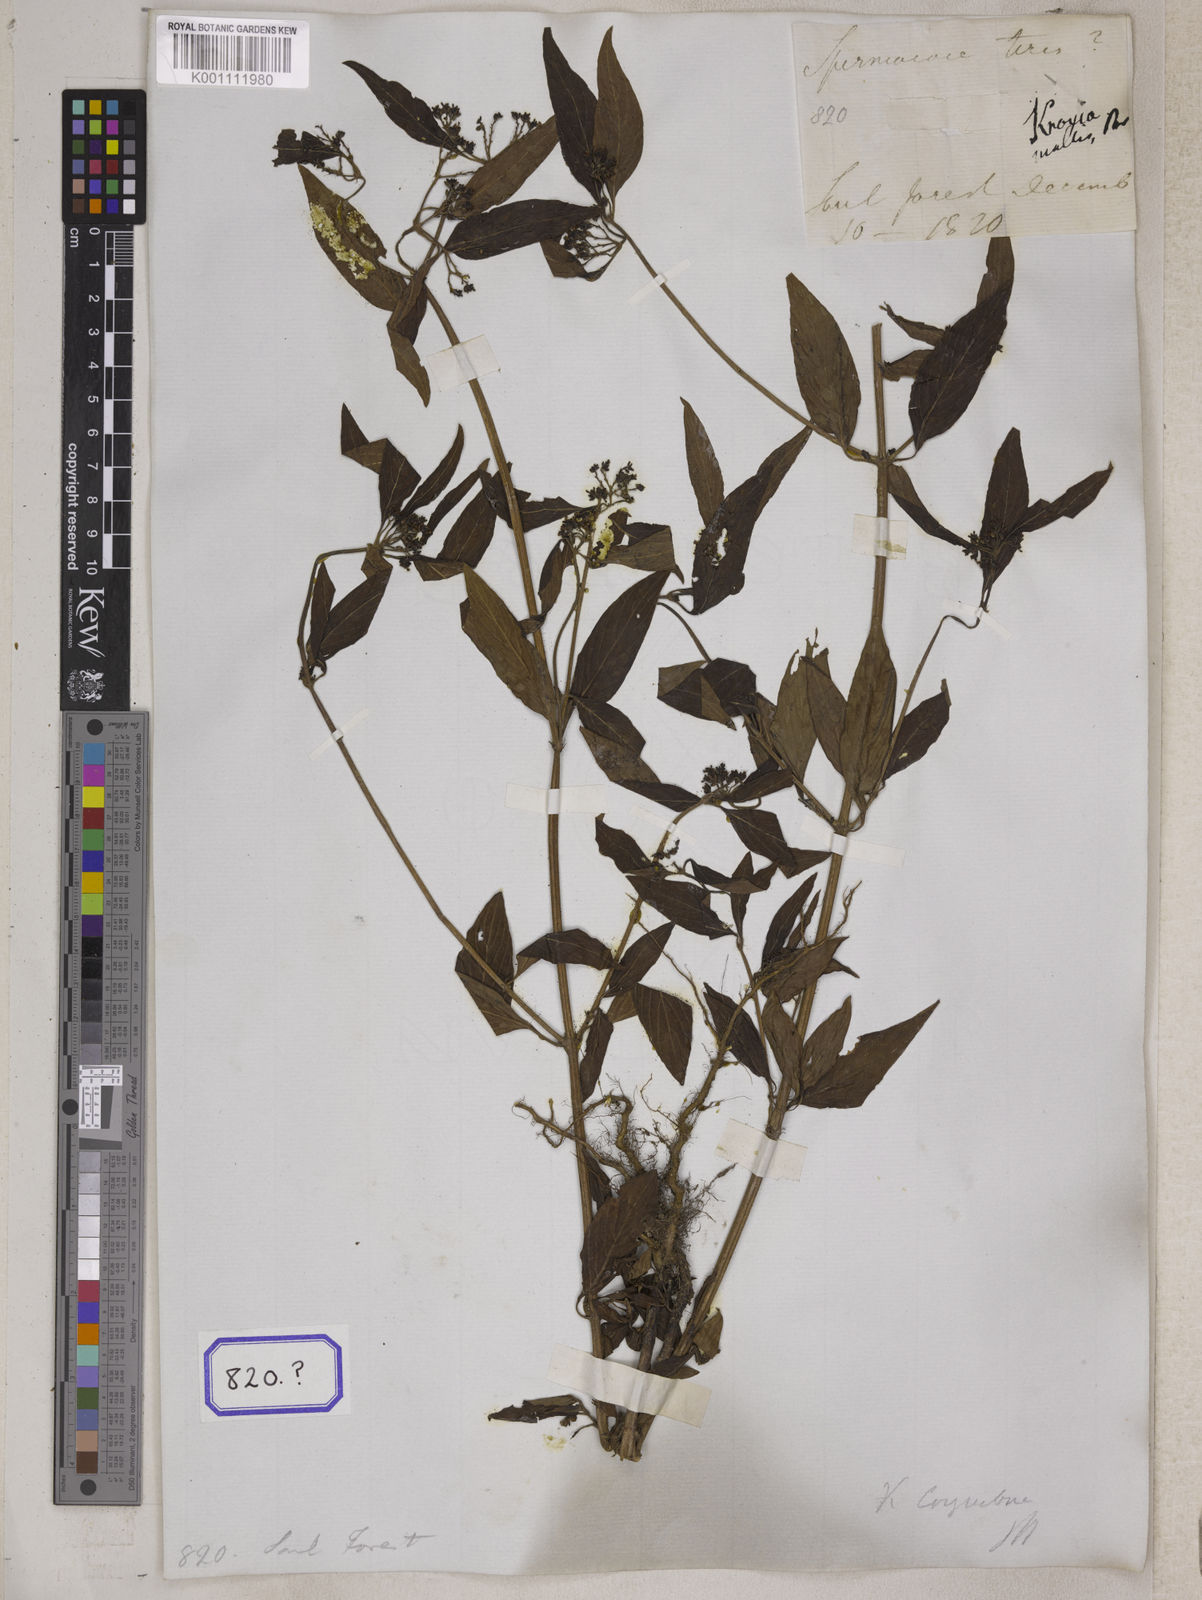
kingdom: Plantae
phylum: Tracheophyta
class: Magnoliopsida
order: Gentianales
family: Rubiaceae
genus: Knoxia
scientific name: Knoxia
